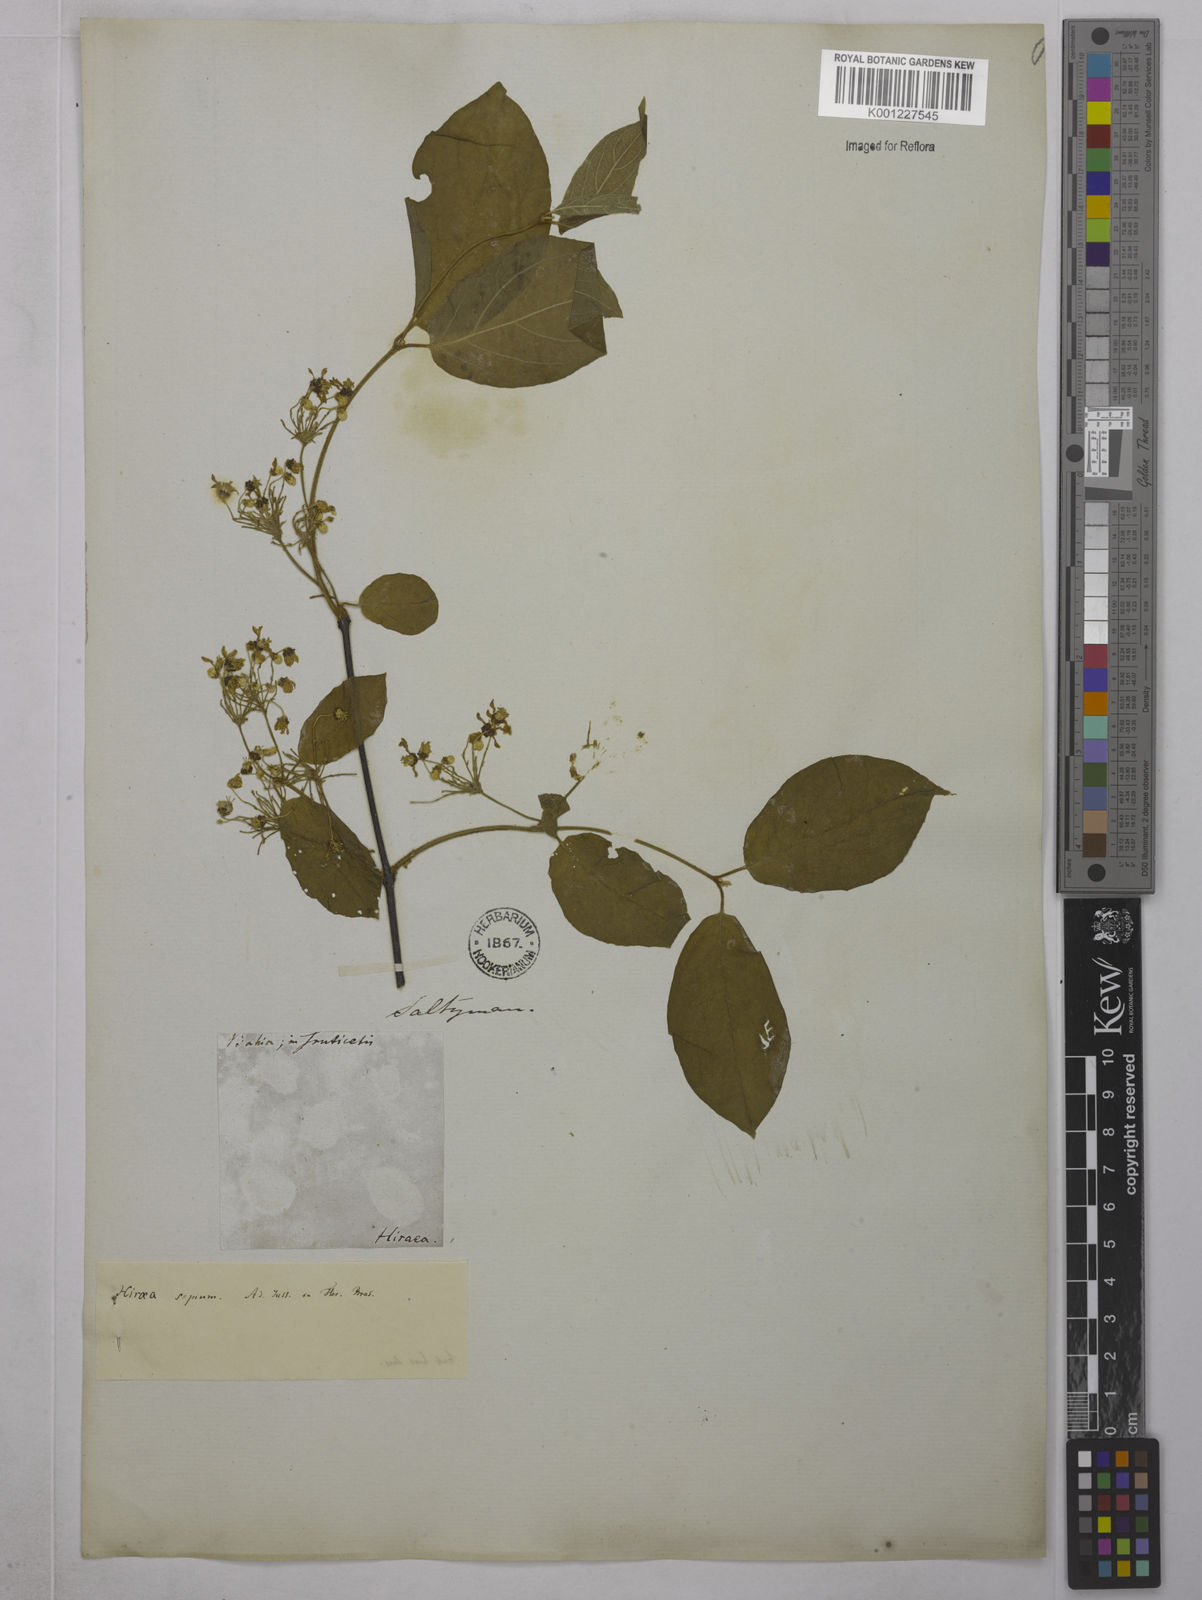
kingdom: Plantae
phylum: Tracheophyta
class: Magnoliopsida
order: Malpighiales
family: Malpighiaceae
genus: Mascagnia
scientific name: Mascagnia sepium
